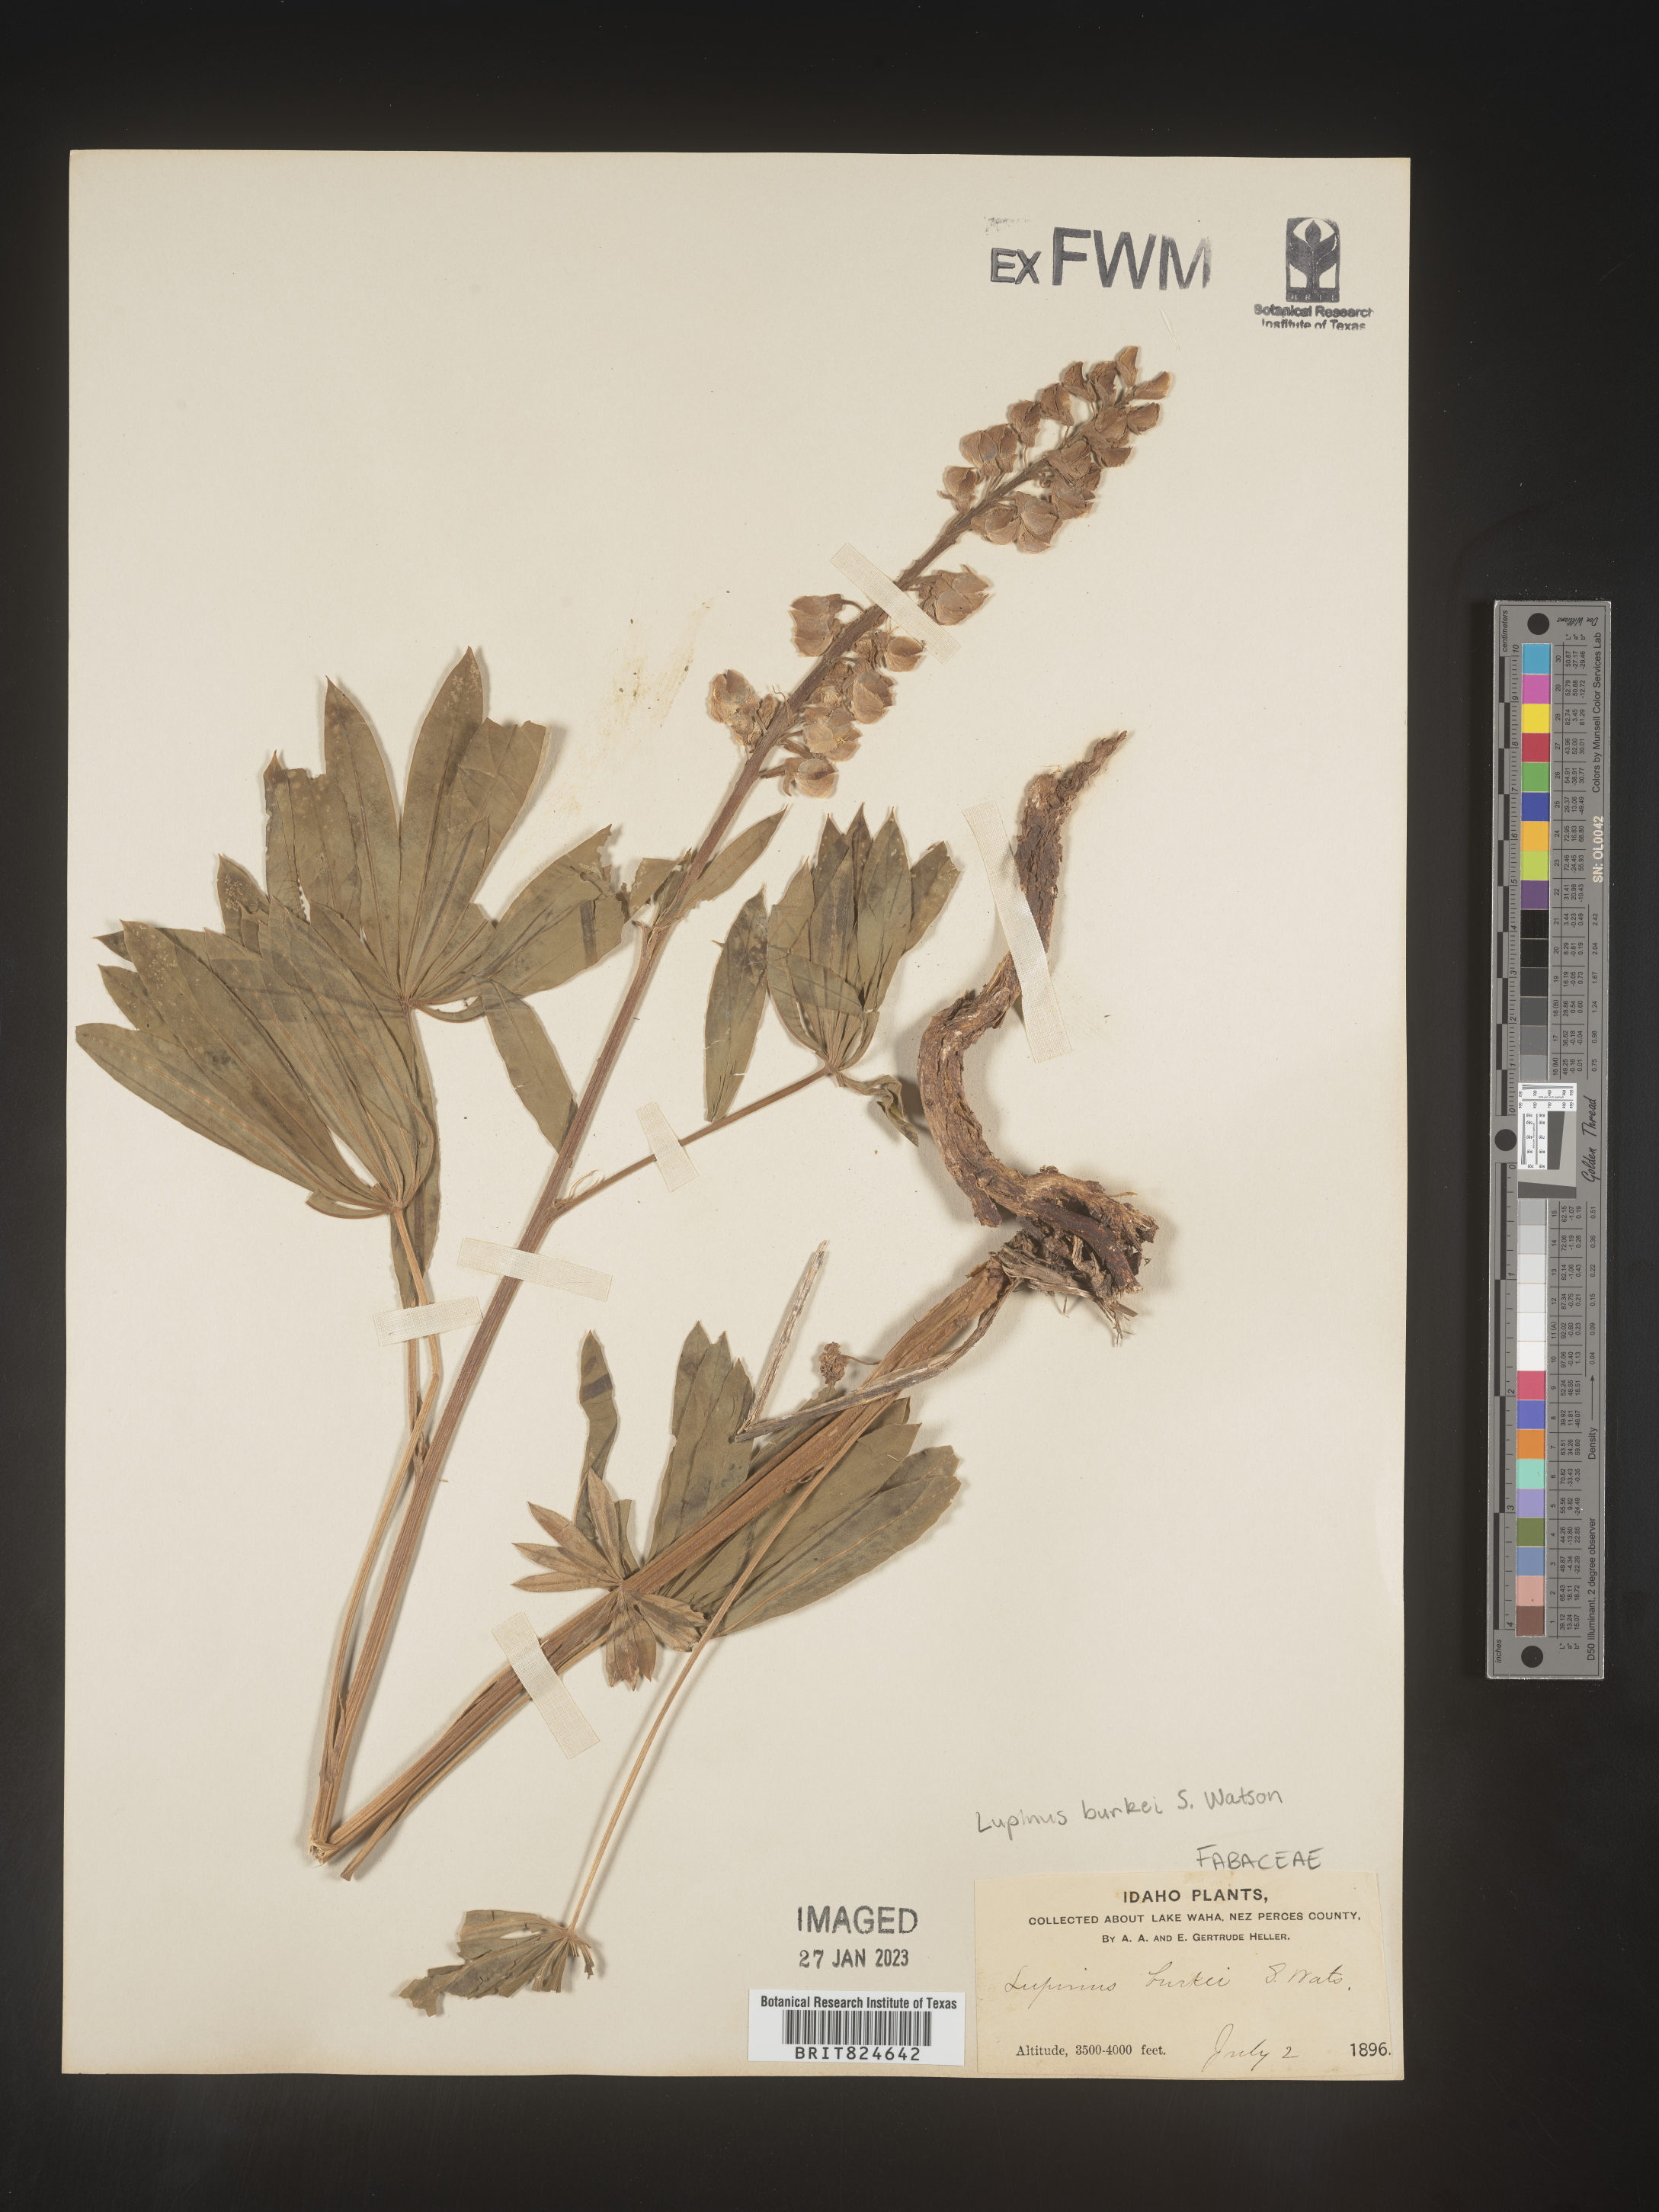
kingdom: Plantae
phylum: Tracheophyta
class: Magnoliopsida
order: Fabales
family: Fabaceae
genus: Lupinus
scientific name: Lupinus
